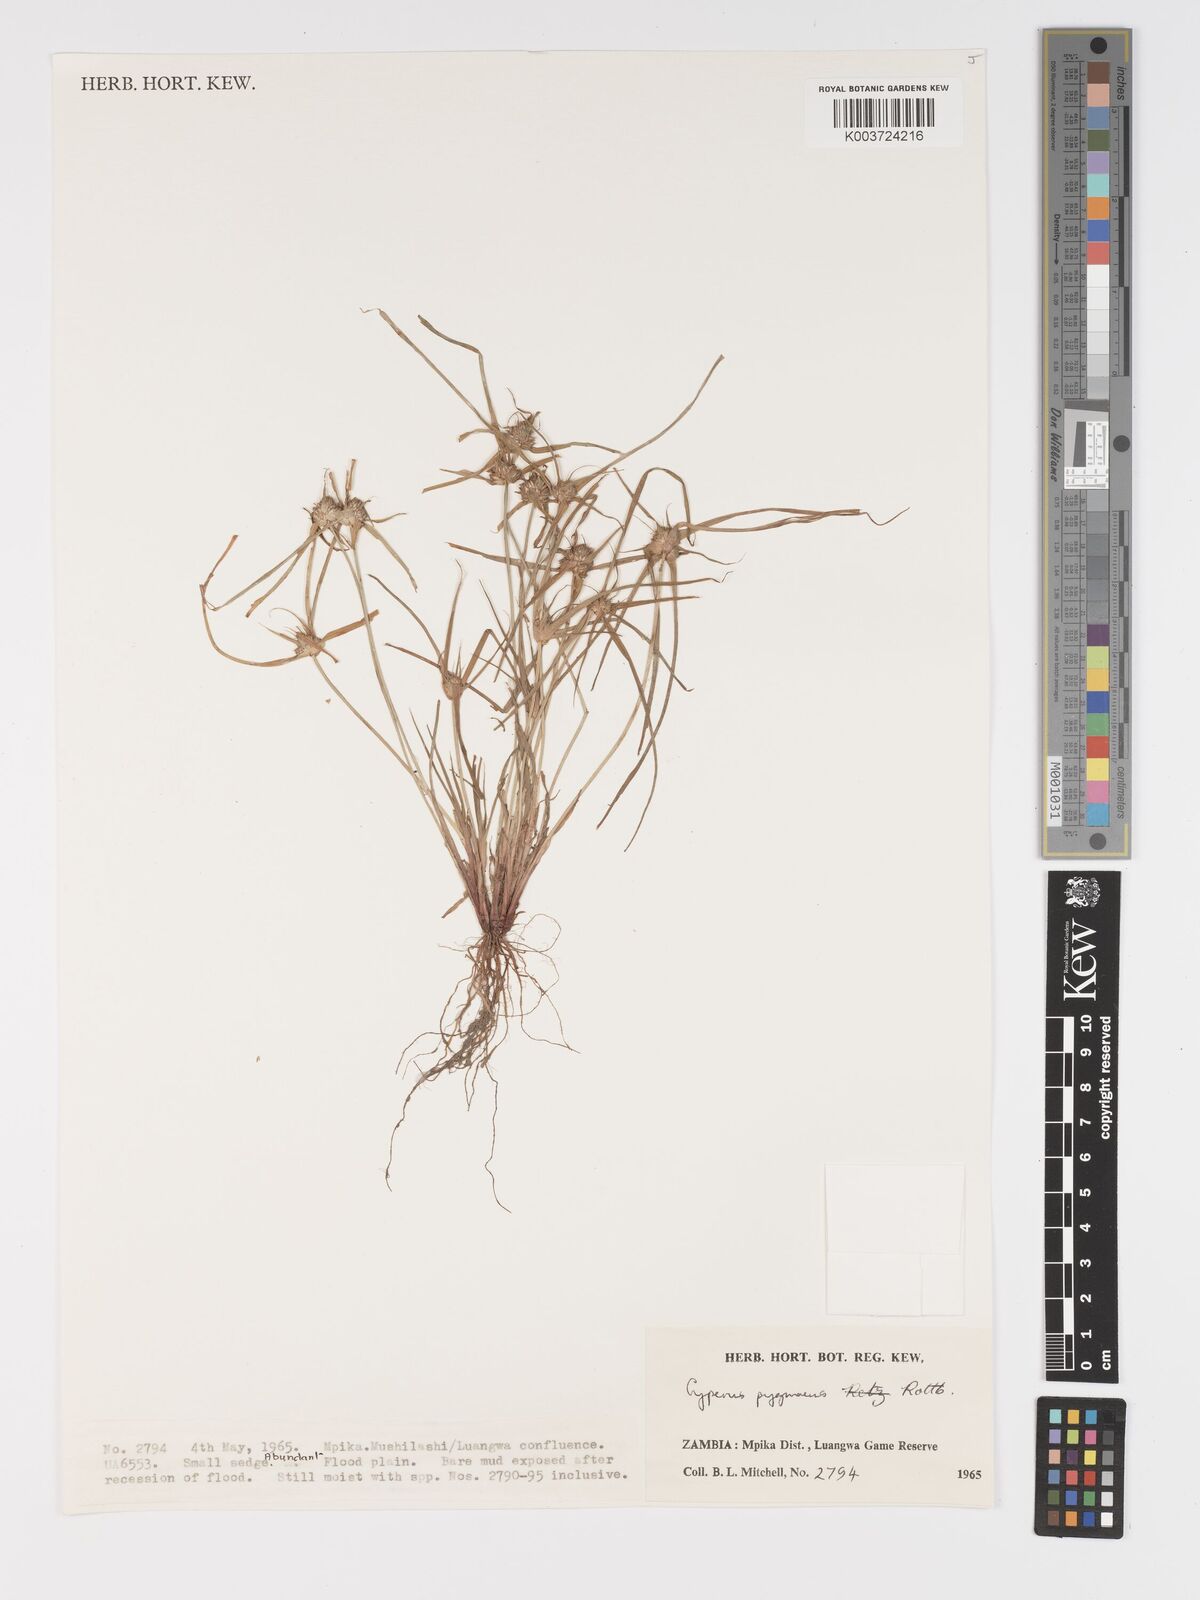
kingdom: Plantae
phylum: Tracheophyta
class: Liliopsida
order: Poales
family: Cyperaceae
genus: Cyperus
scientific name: Cyperus michelianus
